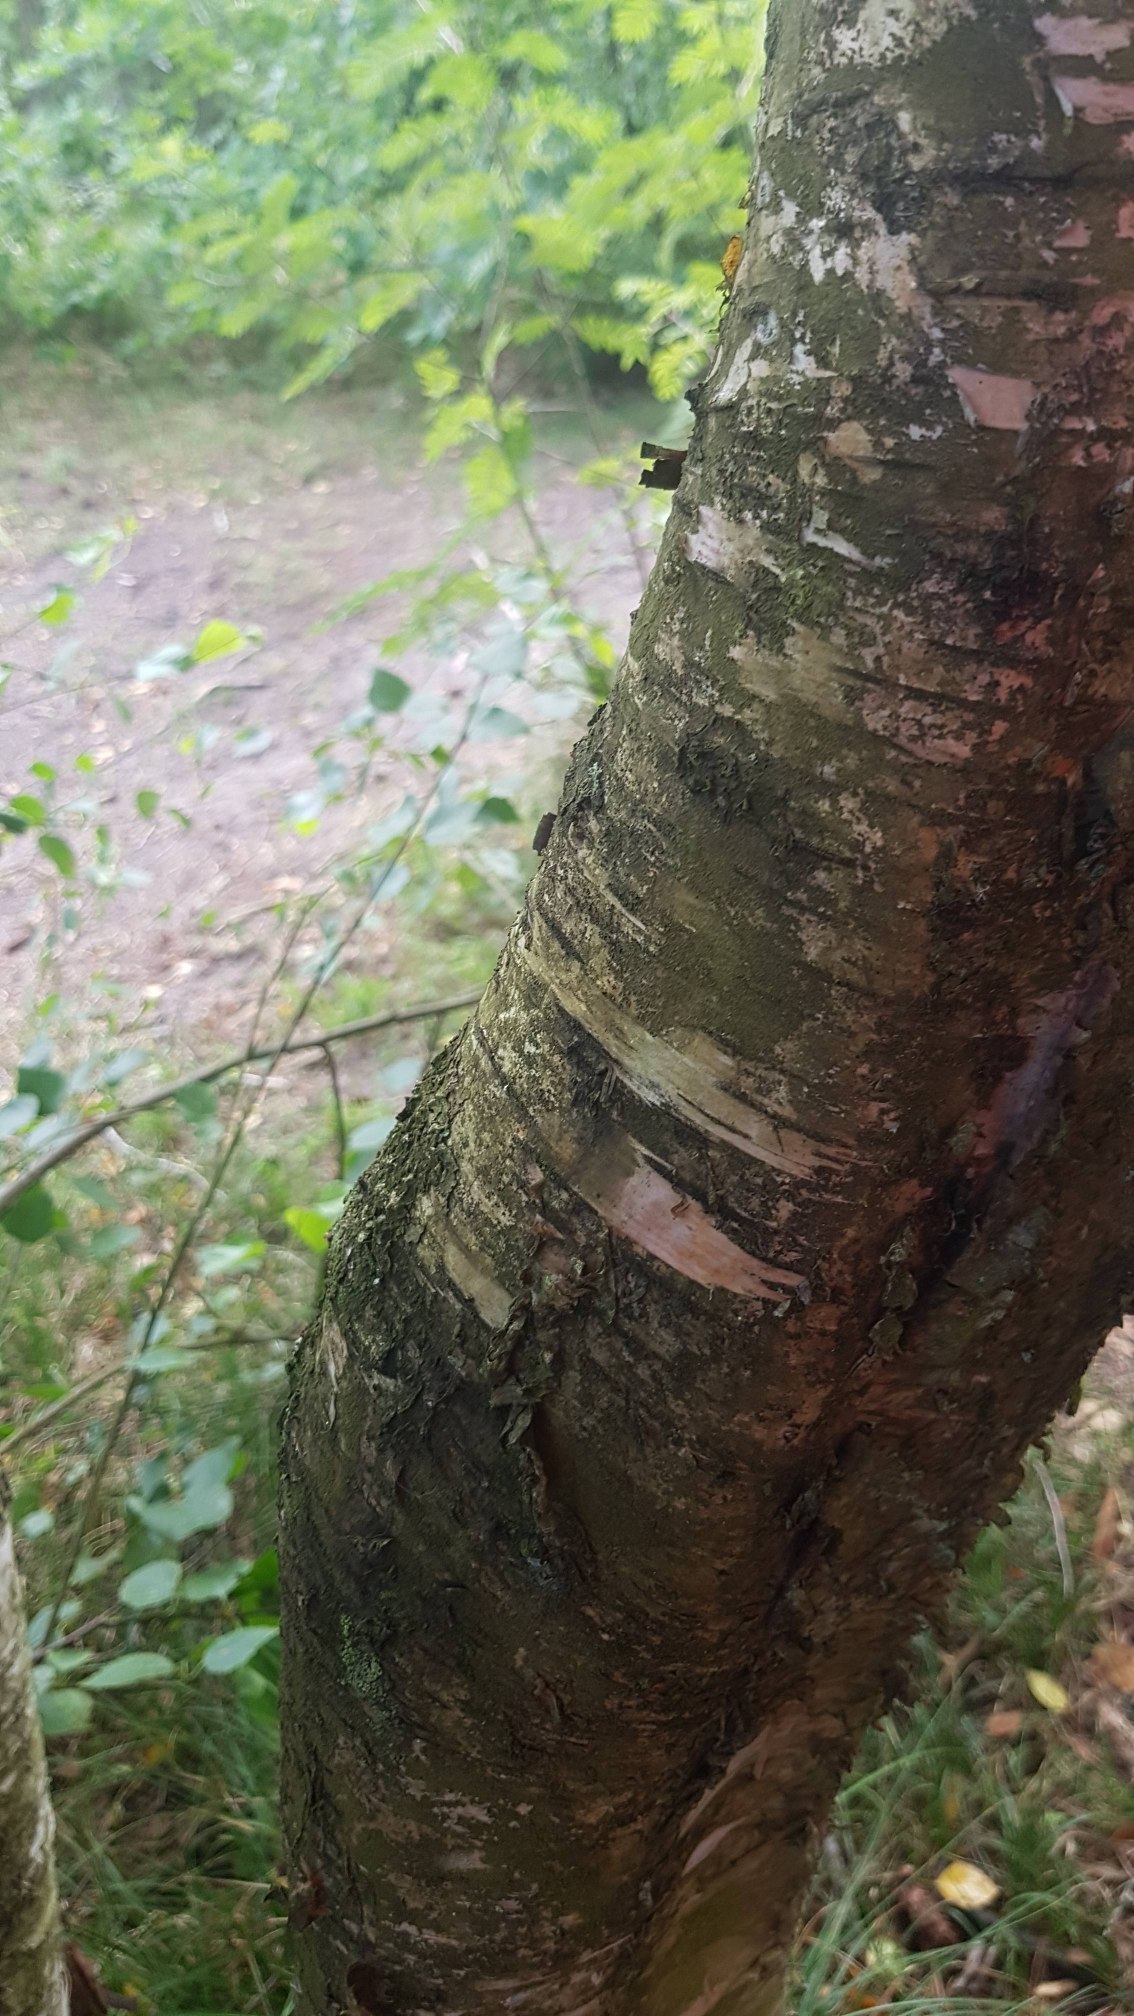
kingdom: Plantae
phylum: Tracheophyta
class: Magnoliopsida
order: Fagales
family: Betulaceae
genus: Betula
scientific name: Betula pendula
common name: Vorte-birk
